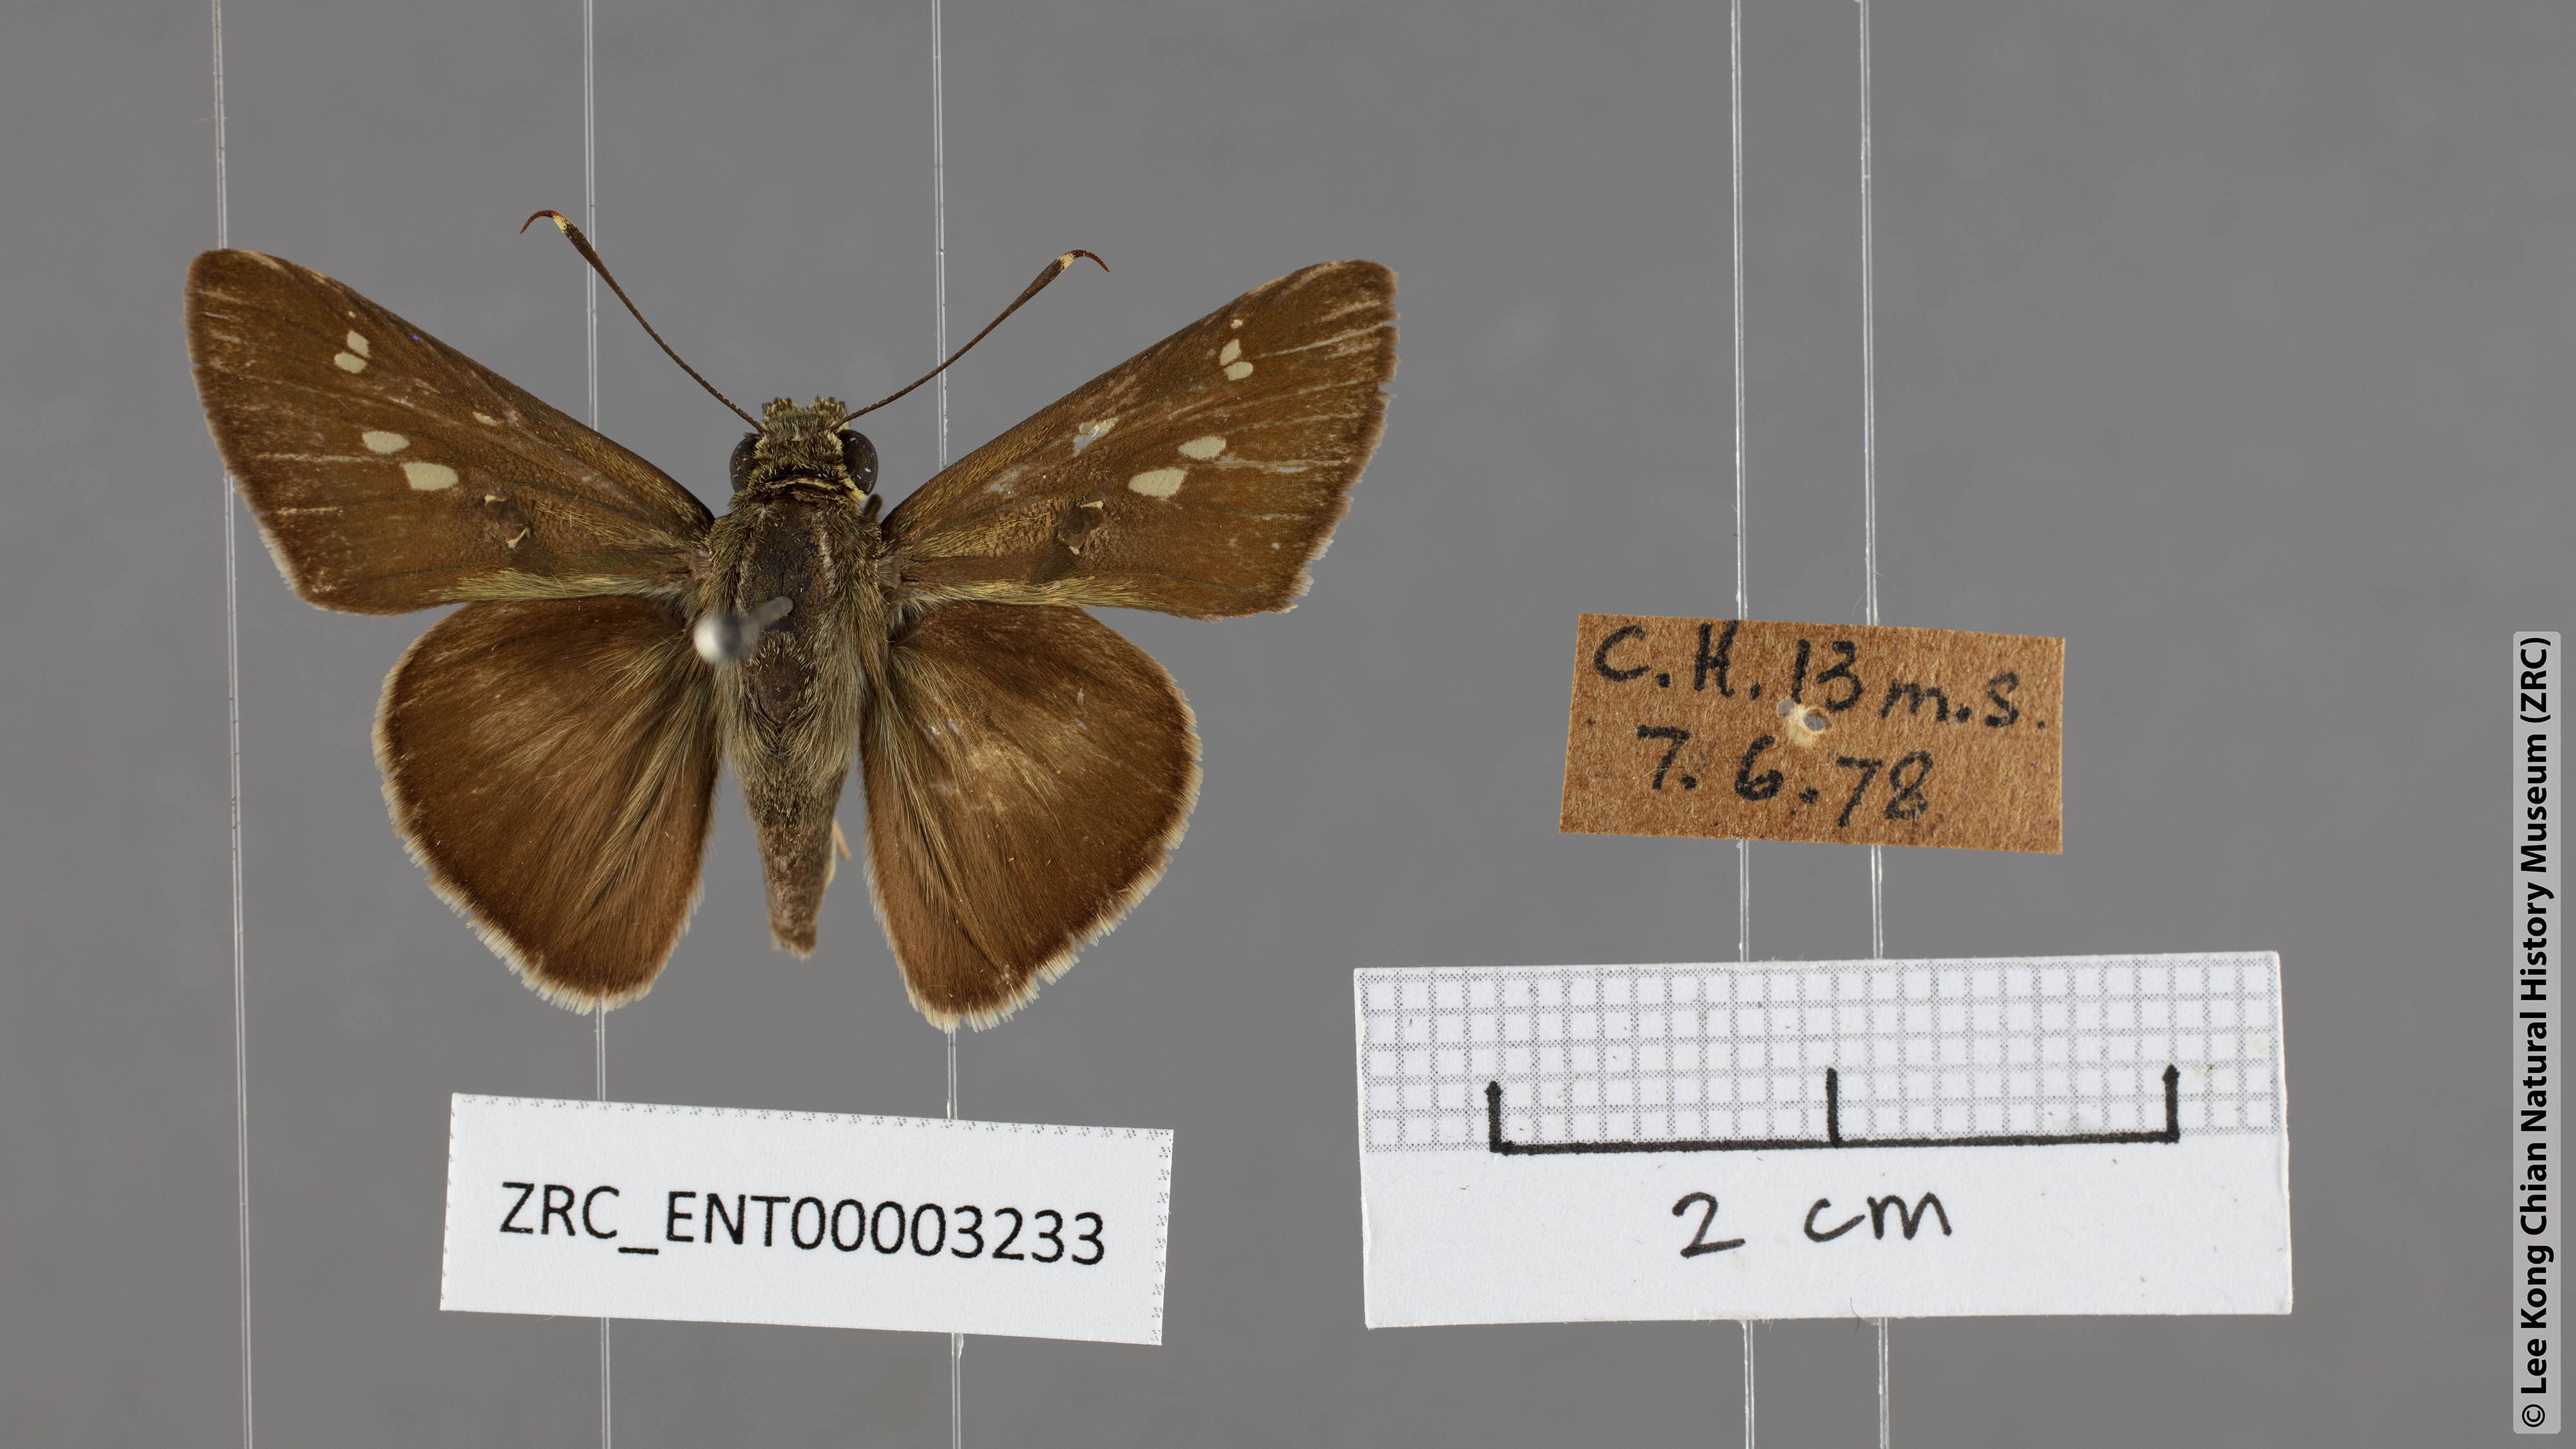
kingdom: Animalia
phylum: Arthropoda
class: Insecta
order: Lepidoptera
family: Hesperiidae
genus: Halpe
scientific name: Halpe
